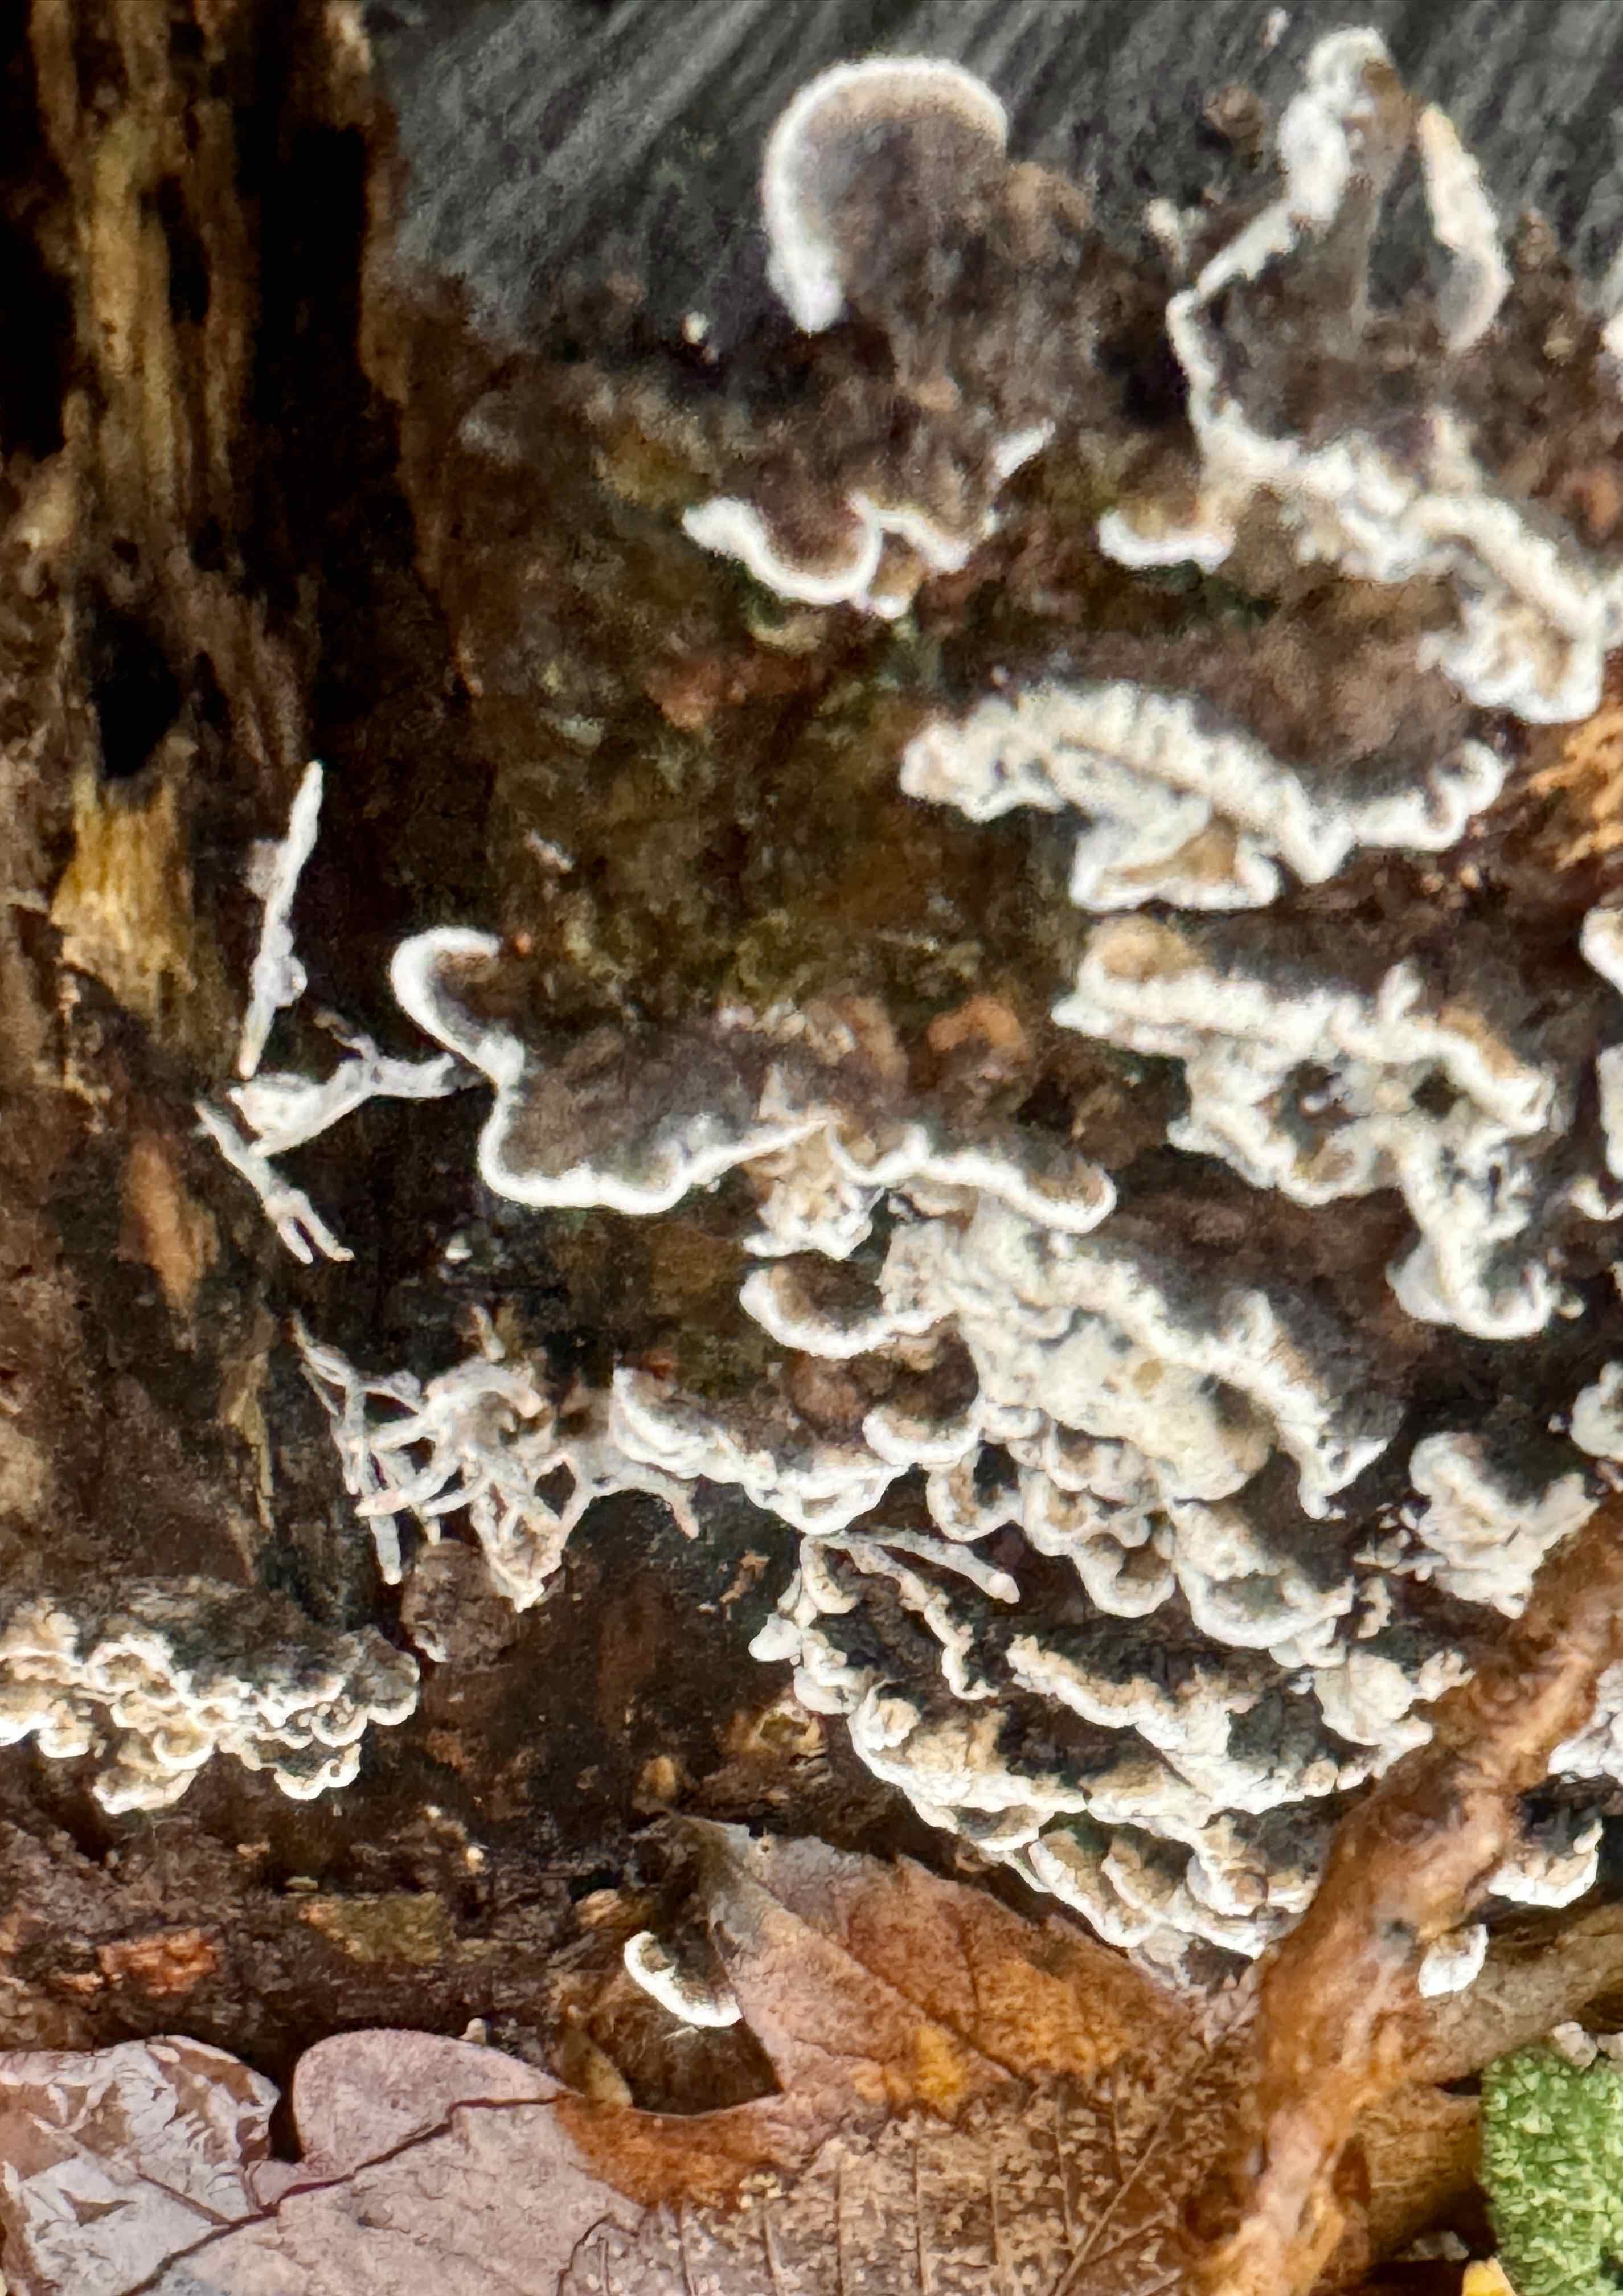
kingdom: Fungi
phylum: Basidiomycota
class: Agaricomycetes
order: Polyporales
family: Phanerochaetaceae
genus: Bjerkandera
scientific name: Bjerkandera adusta
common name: sveden sodporesvamp
